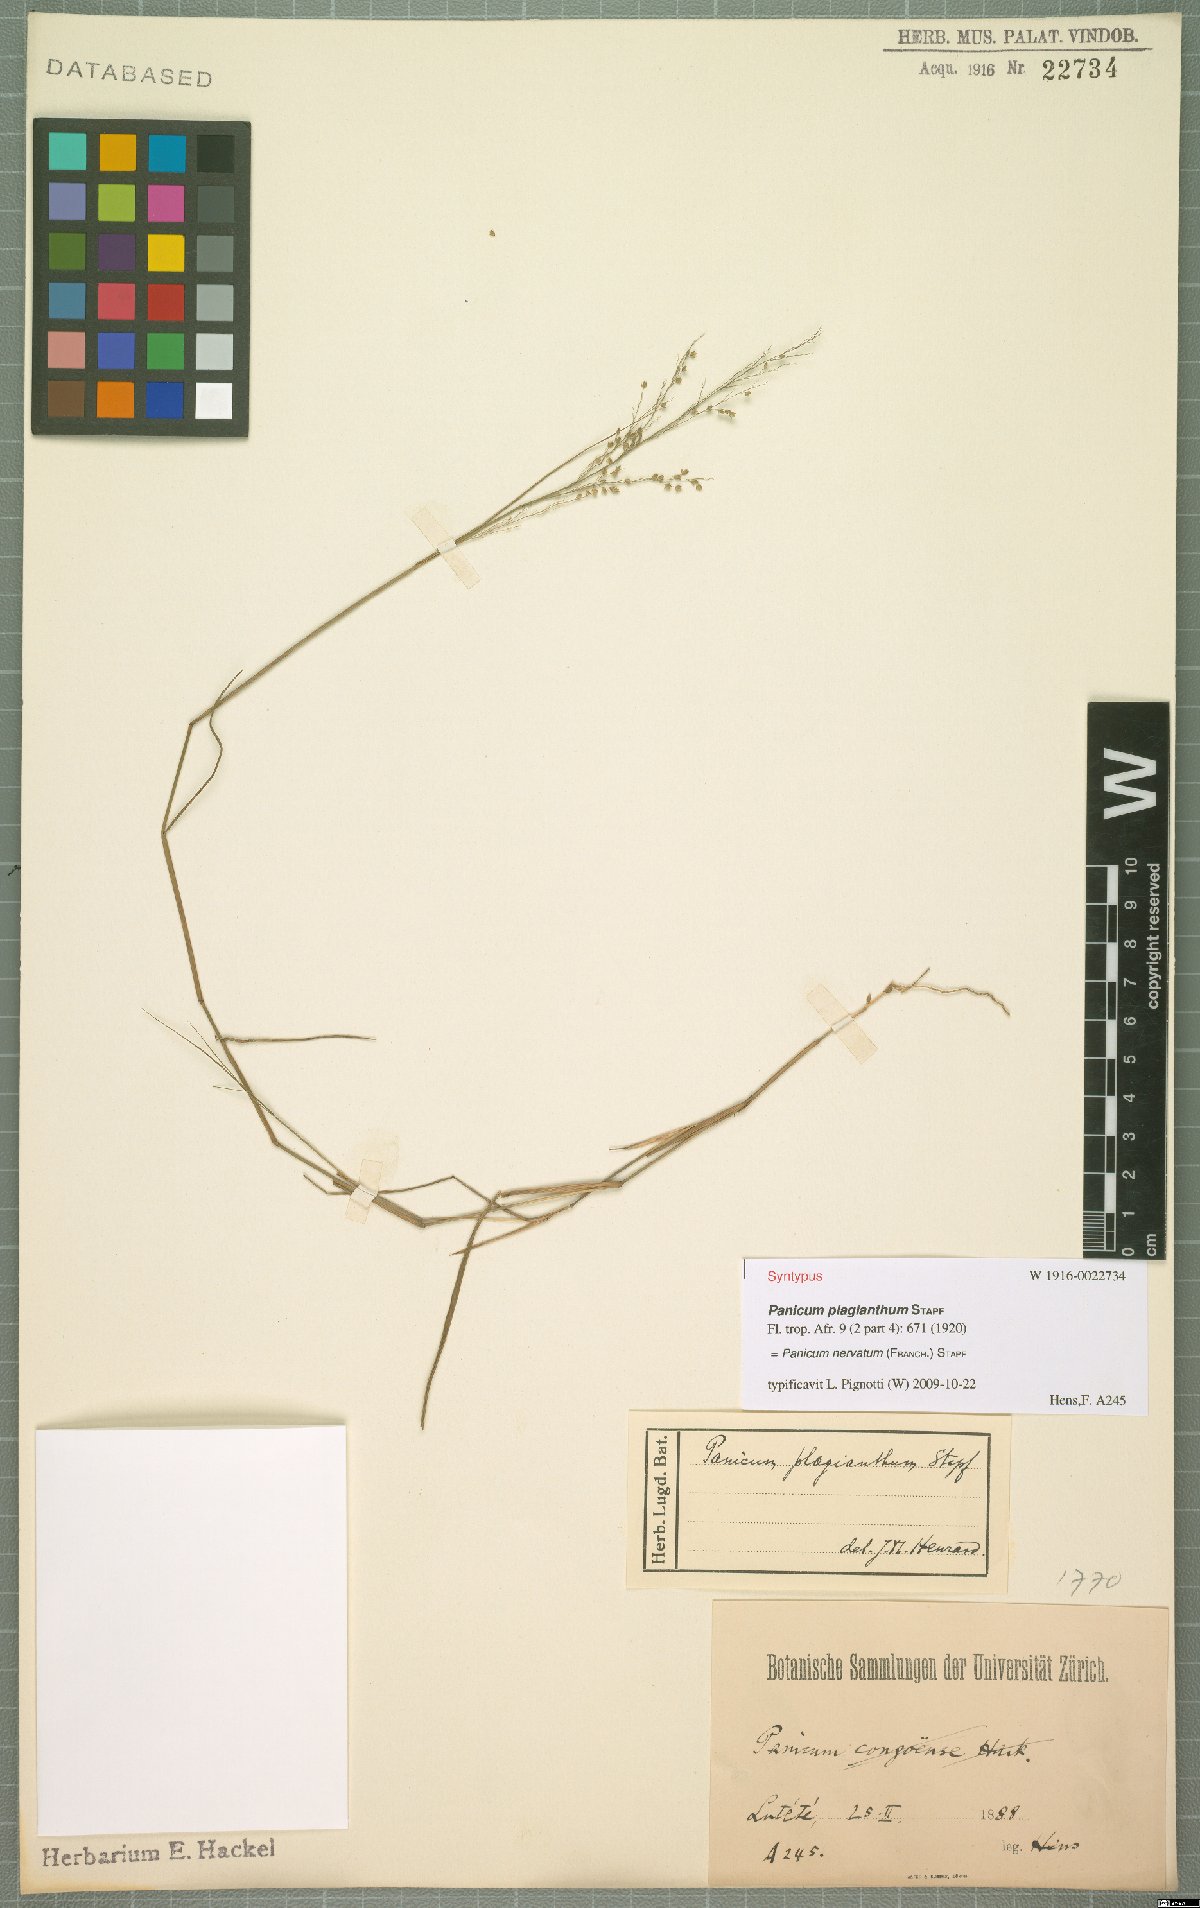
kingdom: Plantae
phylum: Tracheophyta
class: Liliopsida
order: Poales
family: Poaceae
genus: Trichanthecium
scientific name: Trichanthecium nervatum
